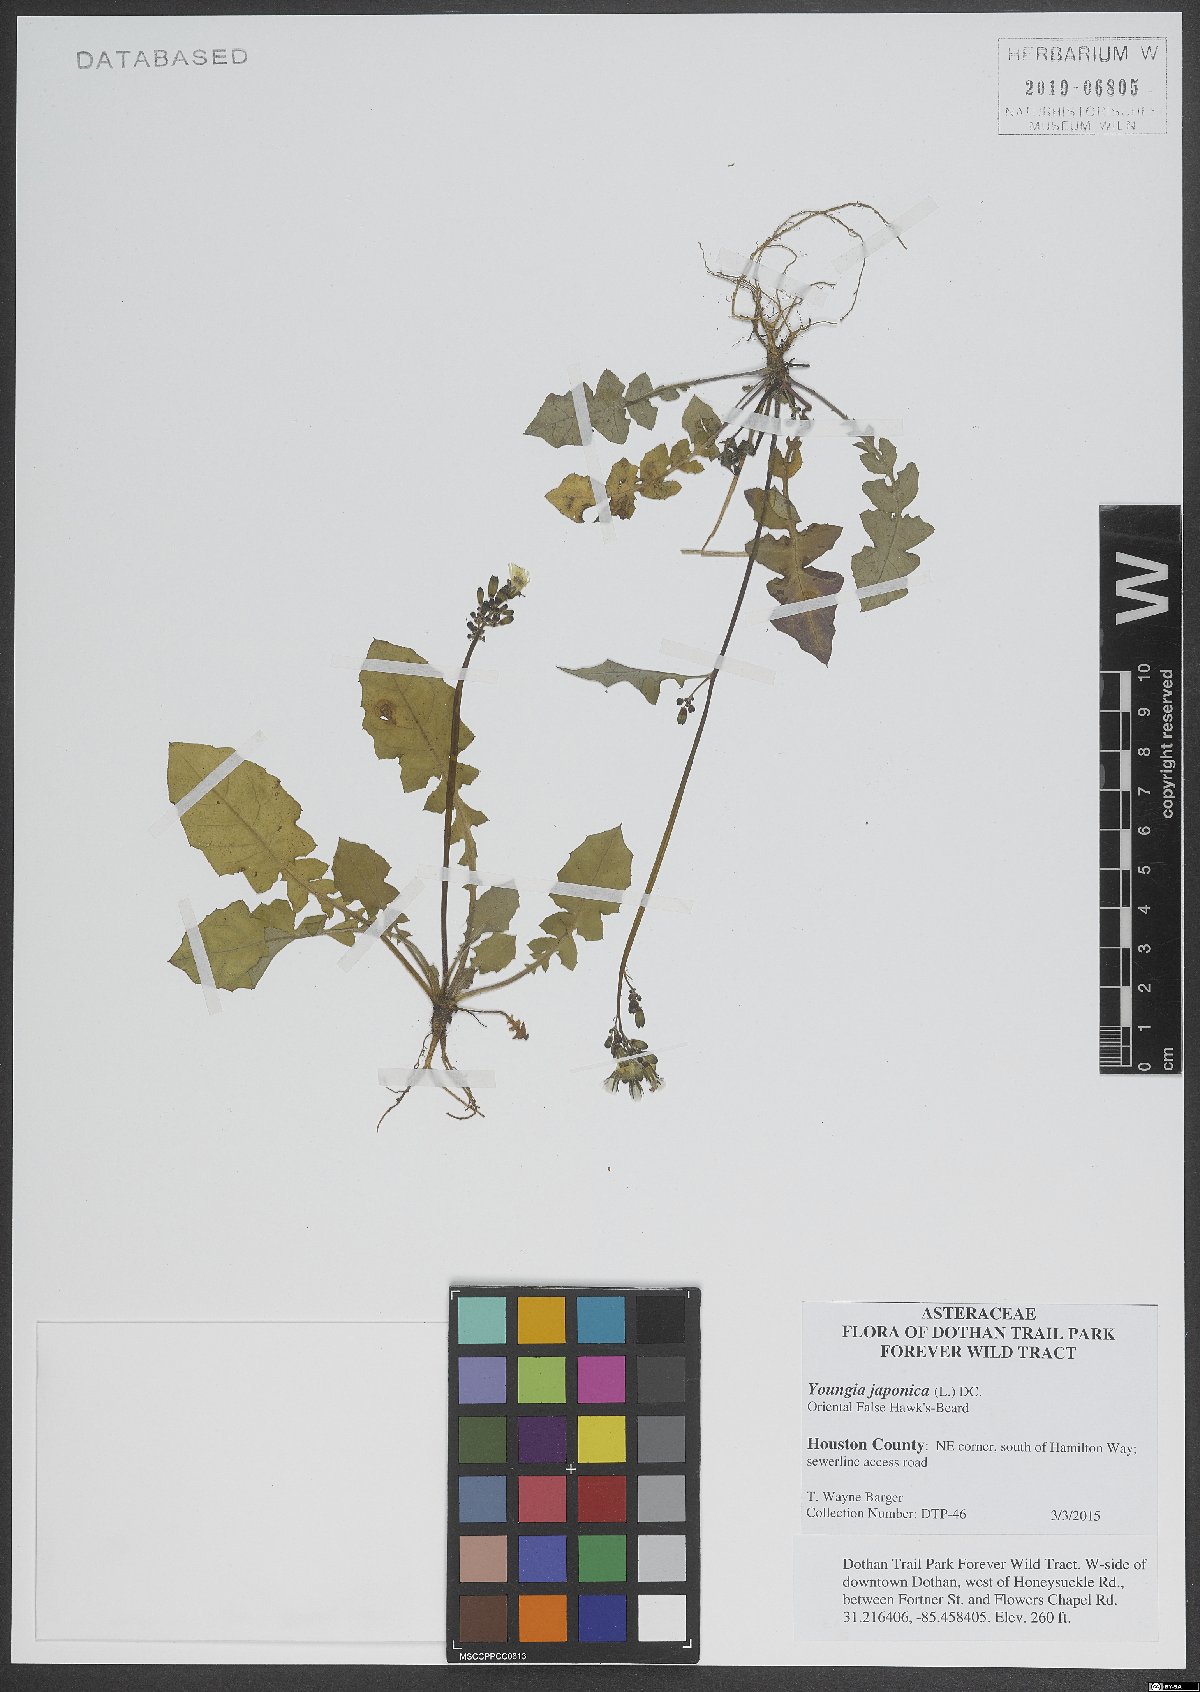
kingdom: Plantae
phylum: Tracheophyta
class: Magnoliopsida
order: Asterales
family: Asteraceae
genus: Youngia
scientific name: Youngia japonica
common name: Oriental false hawksbeard
